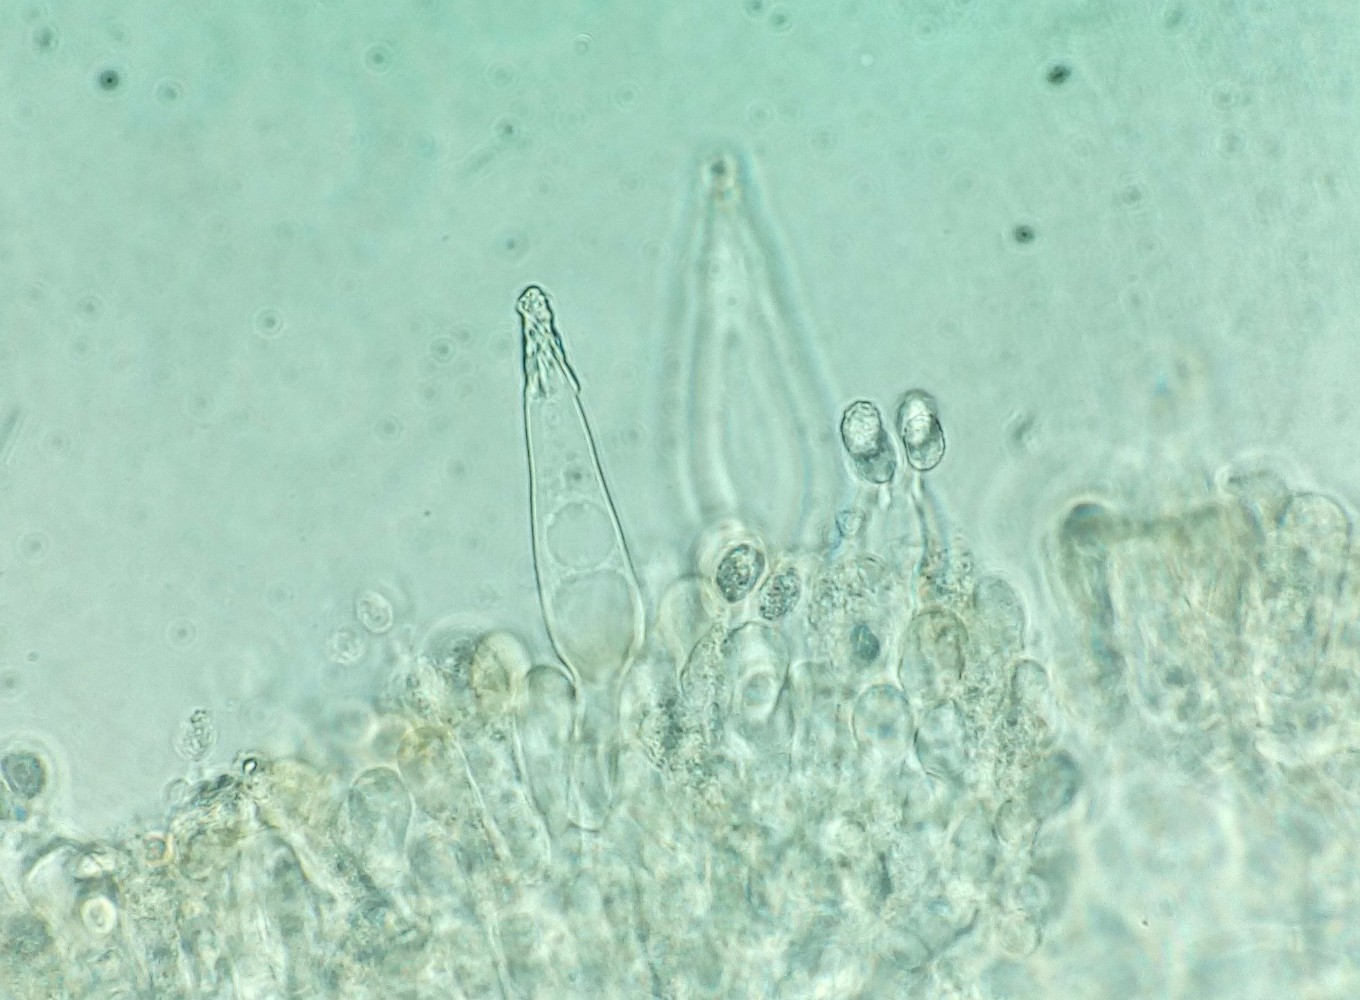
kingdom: Fungi
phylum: Basidiomycota
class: Agaricomycetes
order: Agaricales
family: Tricholomataceae
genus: Melanoleuca
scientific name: Melanoleuca polioleuca
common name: almindelig munkehat
